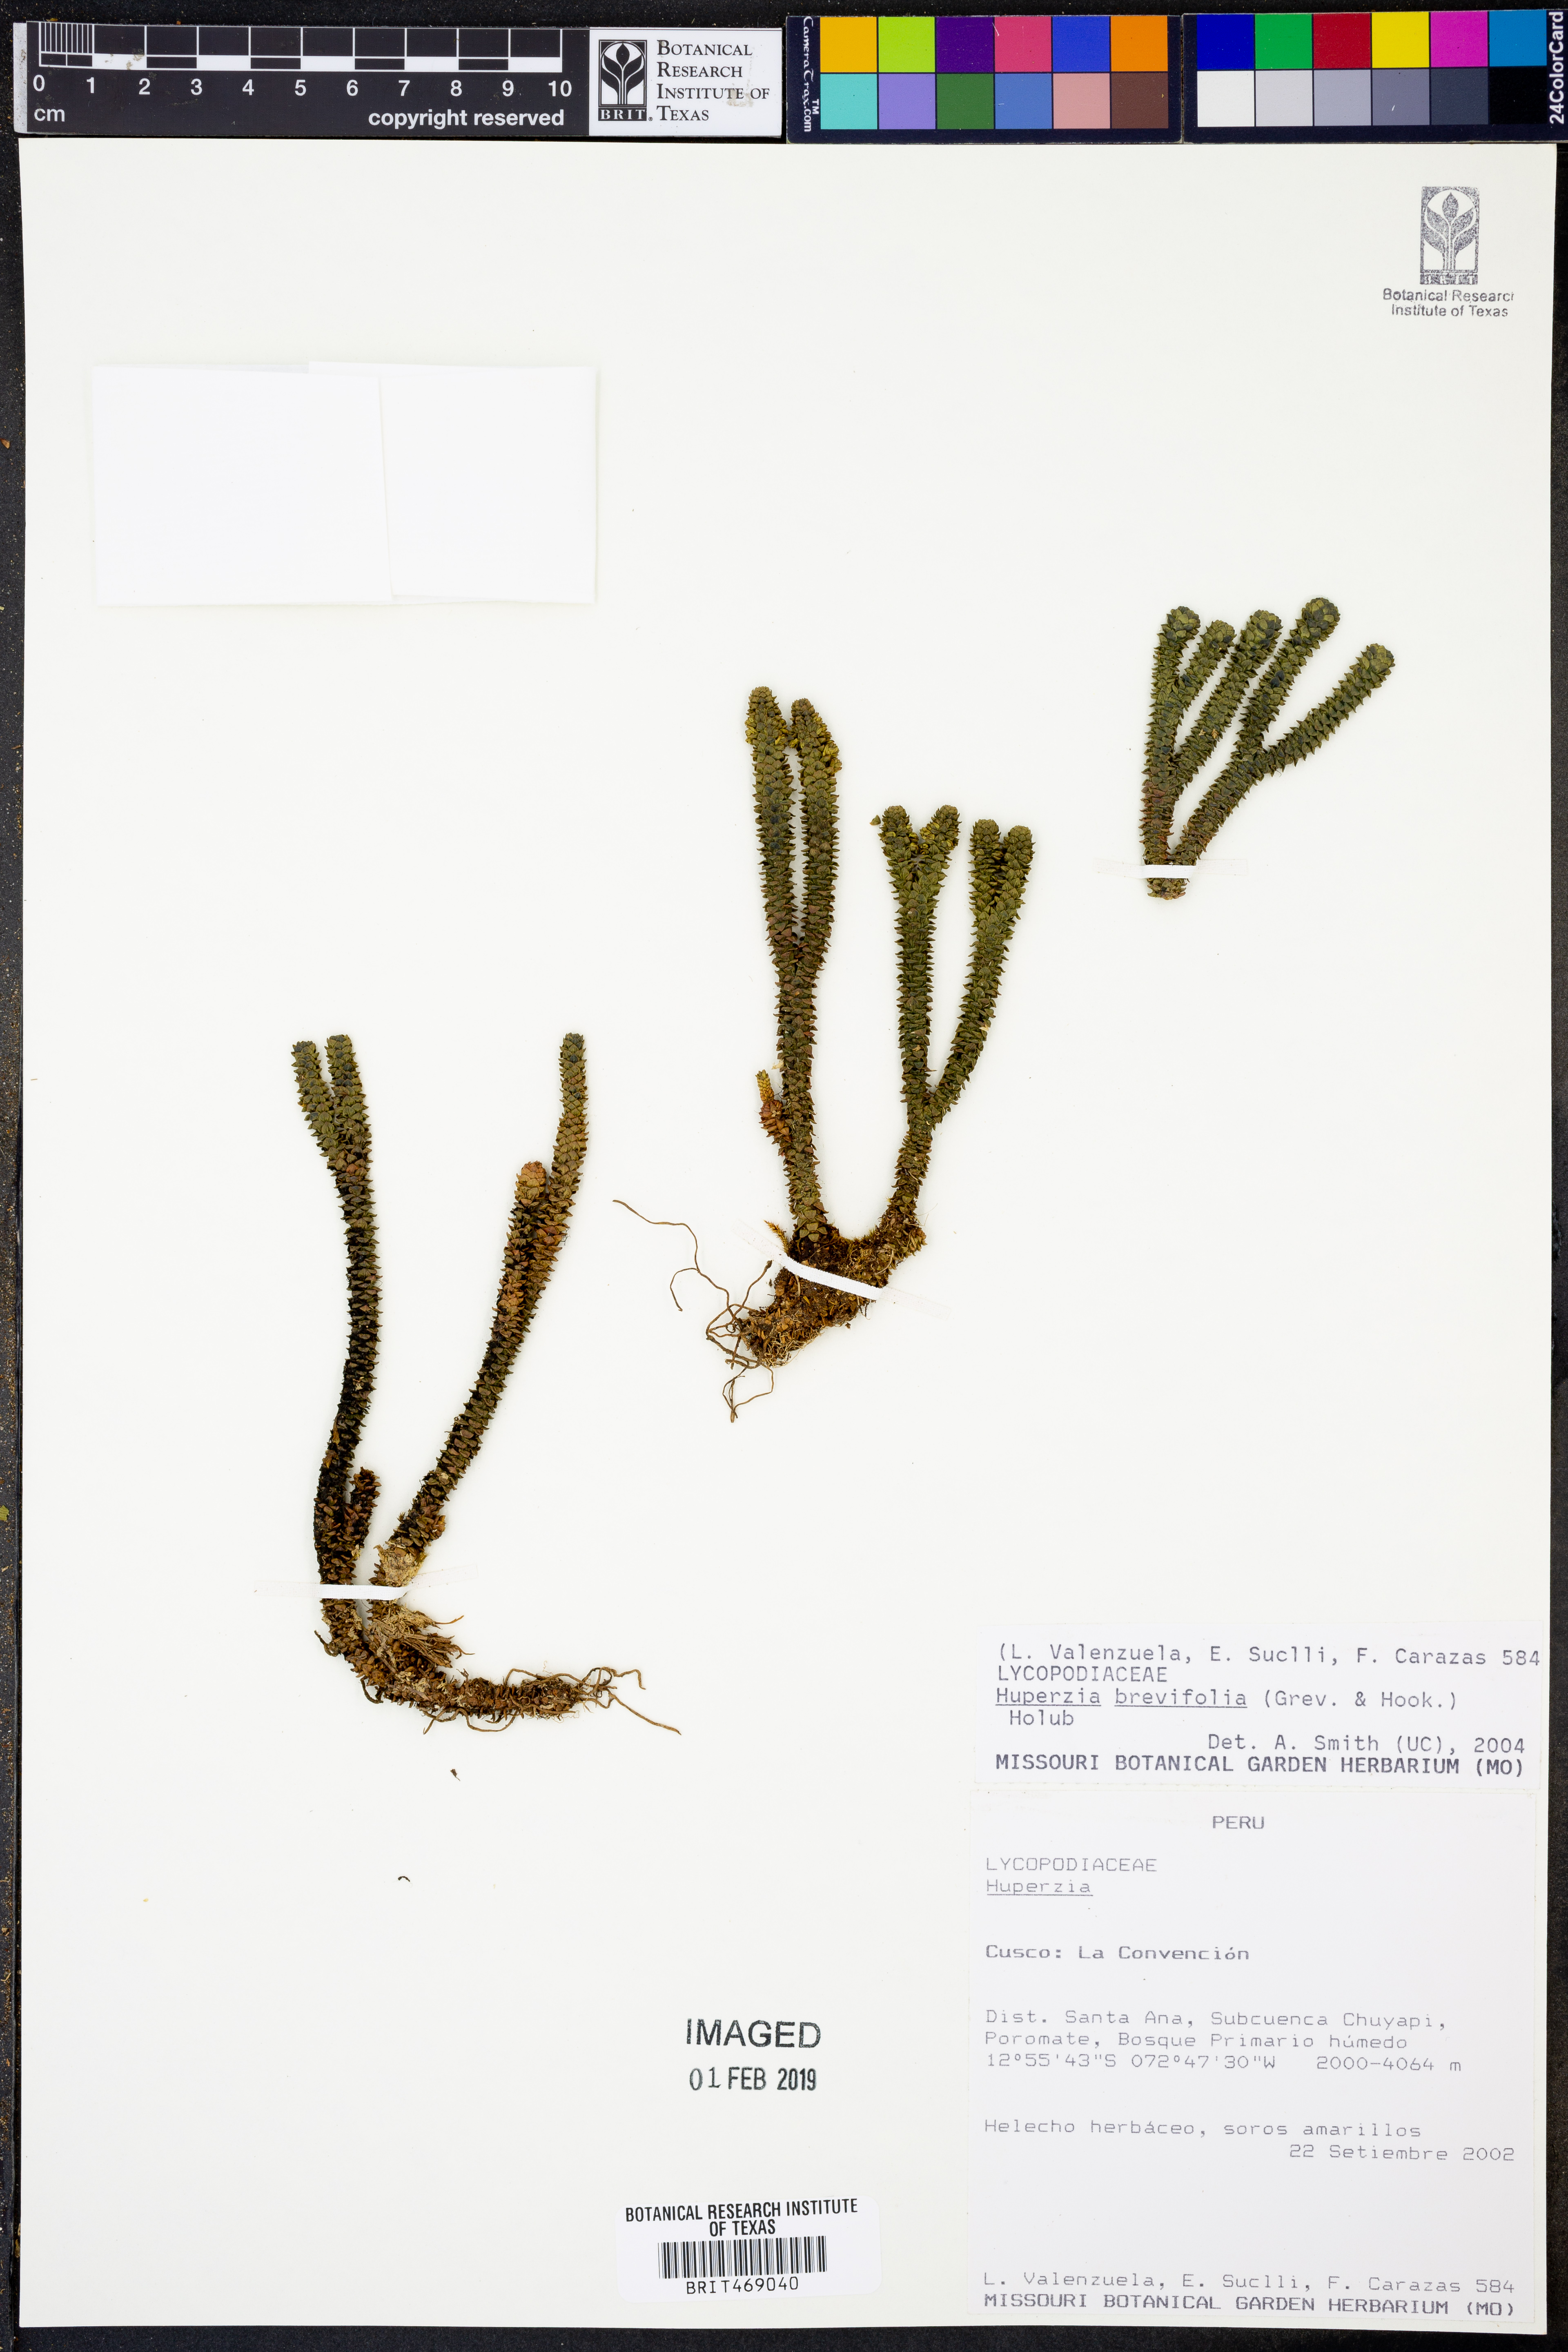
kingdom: Plantae
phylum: Tracheophyta
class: Lycopodiopsida
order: Lycopodiales
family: Lycopodiaceae
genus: Phlegmariurus
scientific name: Phlegmariurus brevifolius
